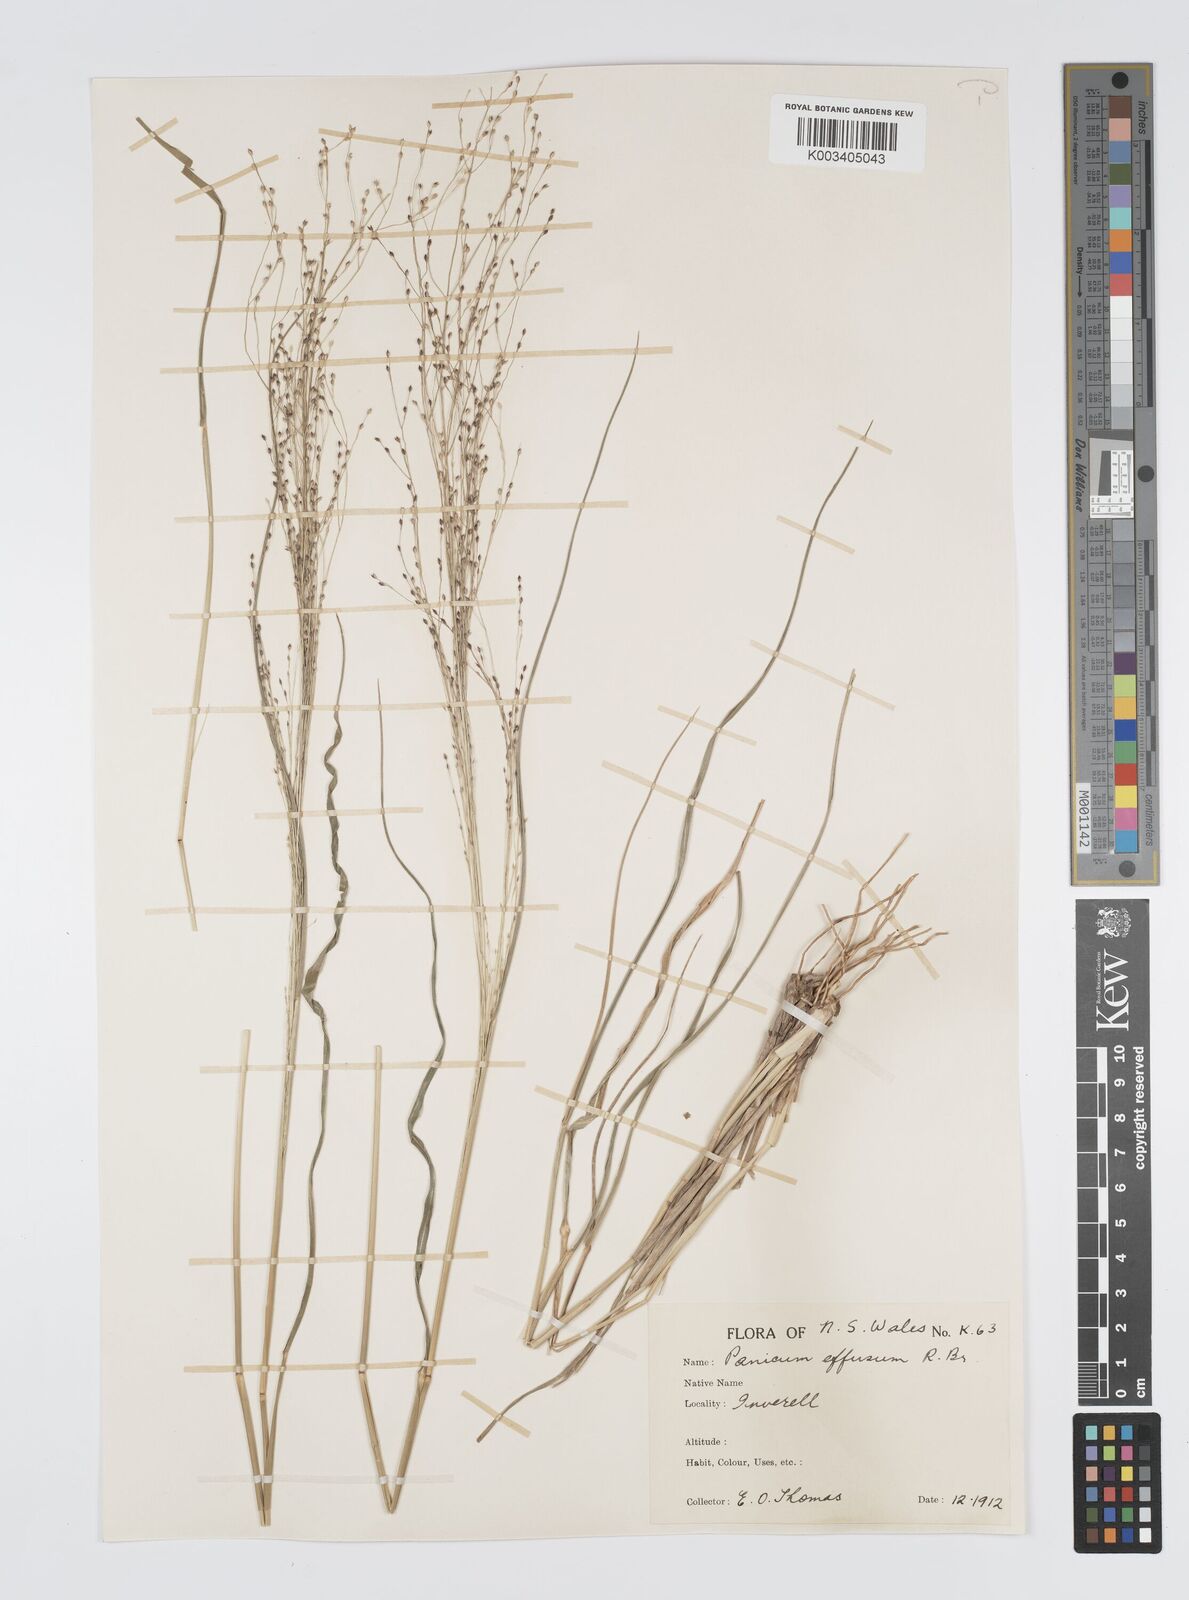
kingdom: Plantae
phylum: Tracheophyta
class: Liliopsida
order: Poales
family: Poaceae
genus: Panicum
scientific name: Panicum effusum
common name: Hairy panic grass
